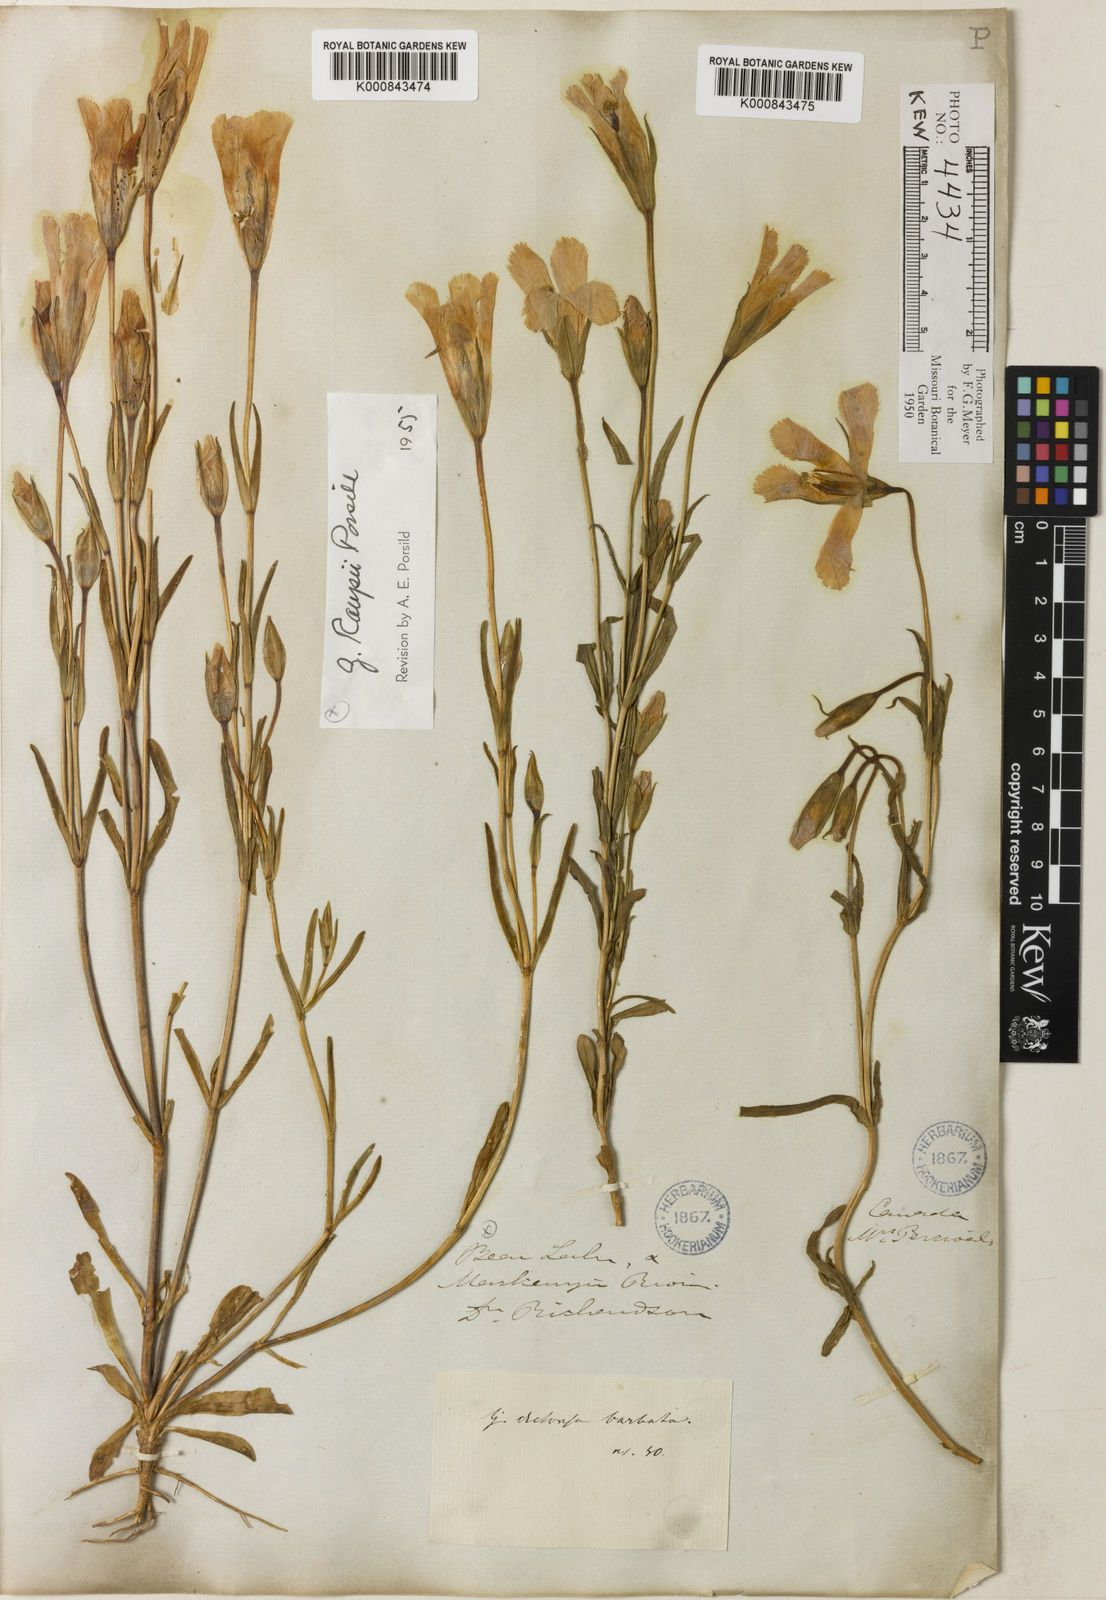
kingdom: Plantae
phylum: Tracheophyta
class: Magnoliopsida
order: Gentianales
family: Gentianaceae
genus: Gentianopsis
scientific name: Gentianopsis detonsa
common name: Fringed-gentian
